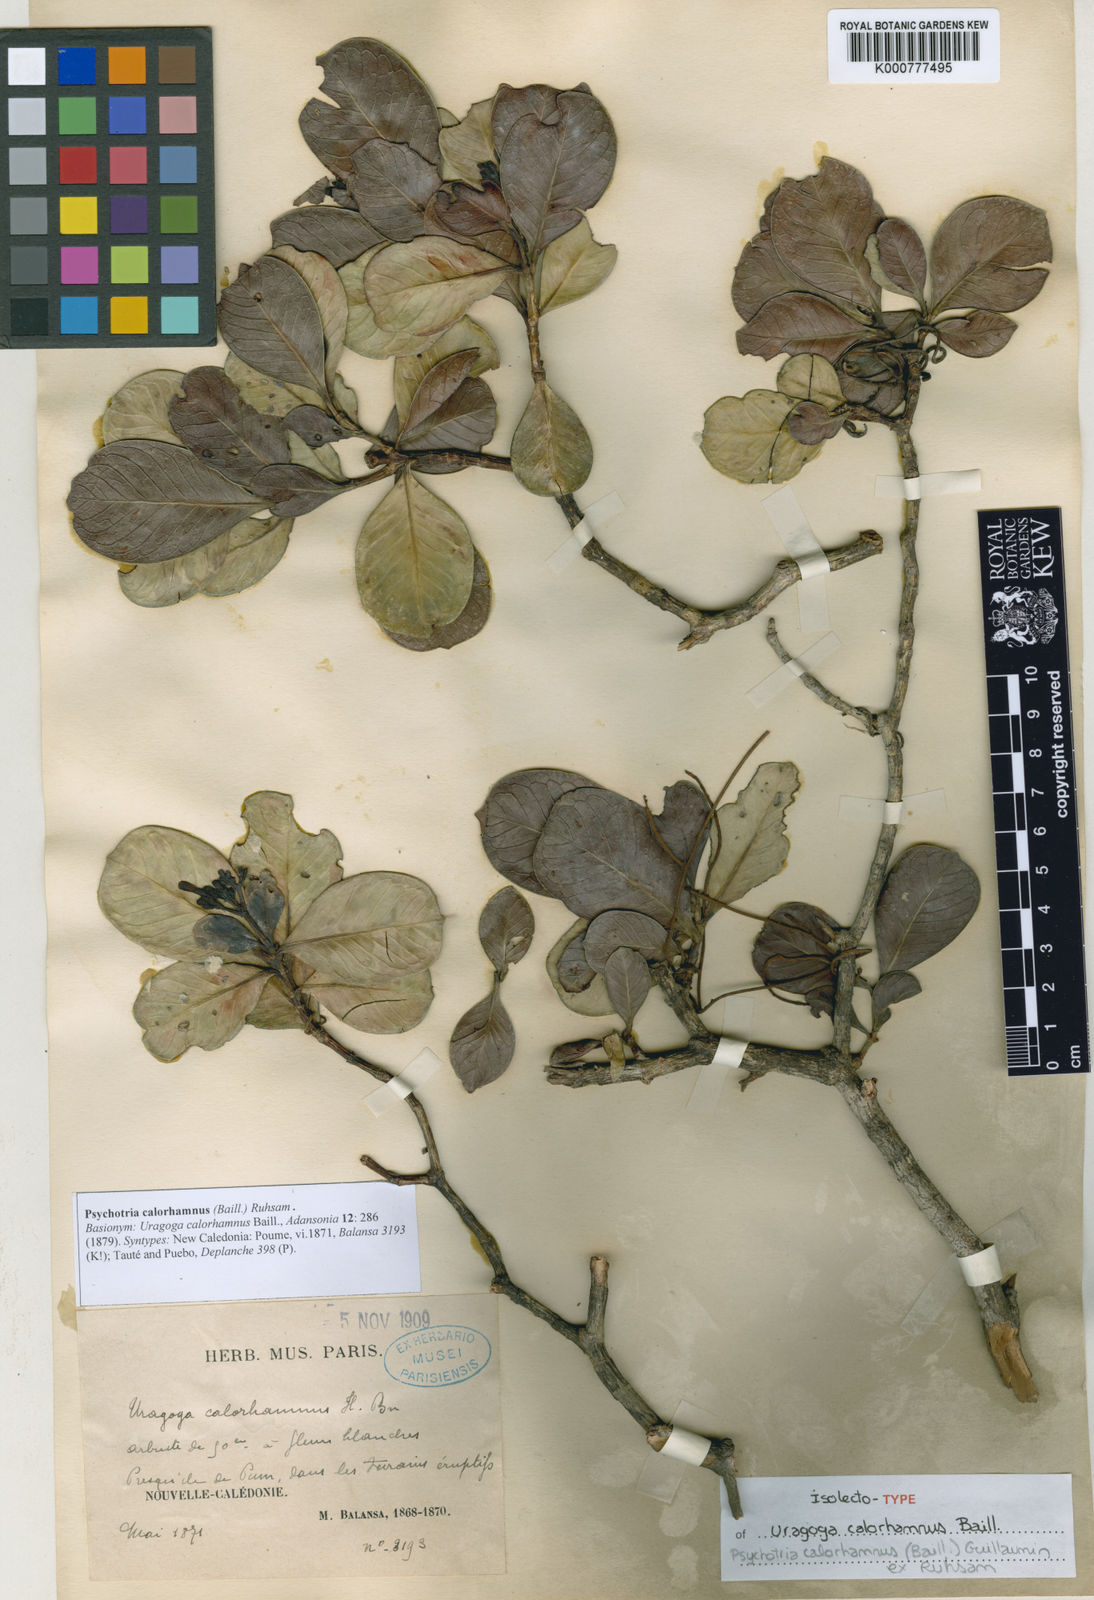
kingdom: Plantae
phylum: Tracheophyta
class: Magnoliopsida
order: Gentianales
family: Rubiaceae
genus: Psychotria
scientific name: Psychotria
